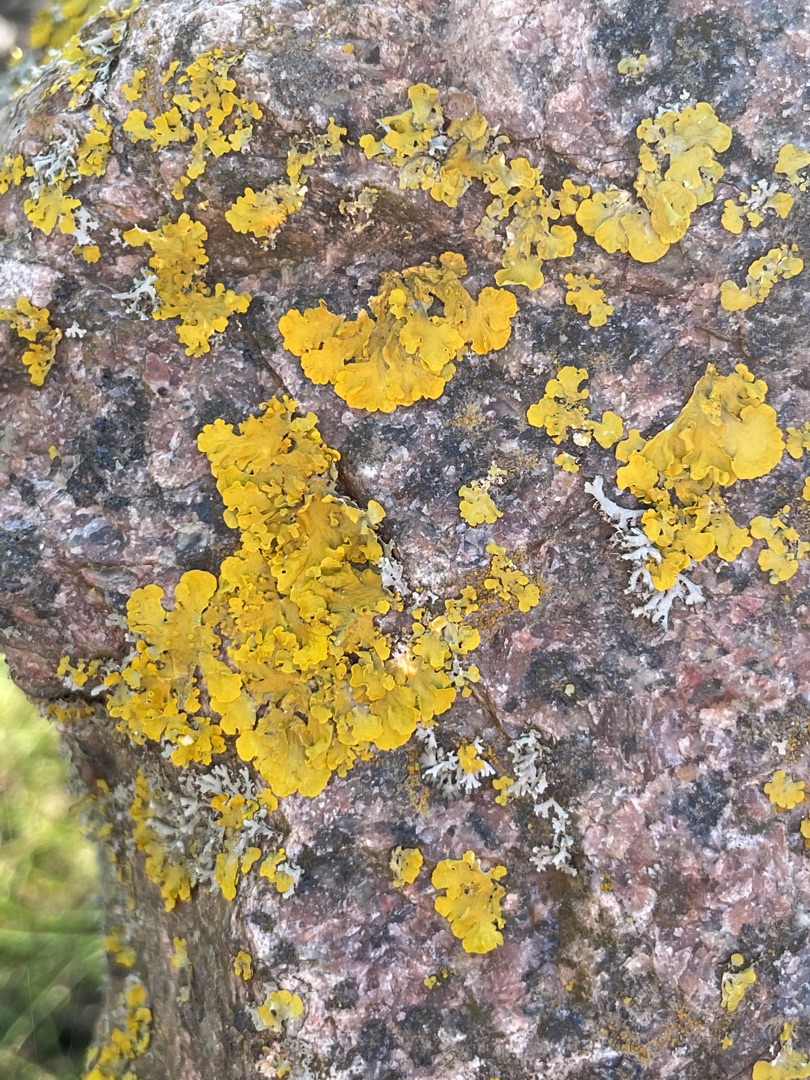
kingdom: Fungi
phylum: Ascomycota
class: Lecanoromycetes
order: Teloschistales
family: Teloschistaceae
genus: Xanthoria
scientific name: Xanthoria parietina
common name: Almindelig væggelav
